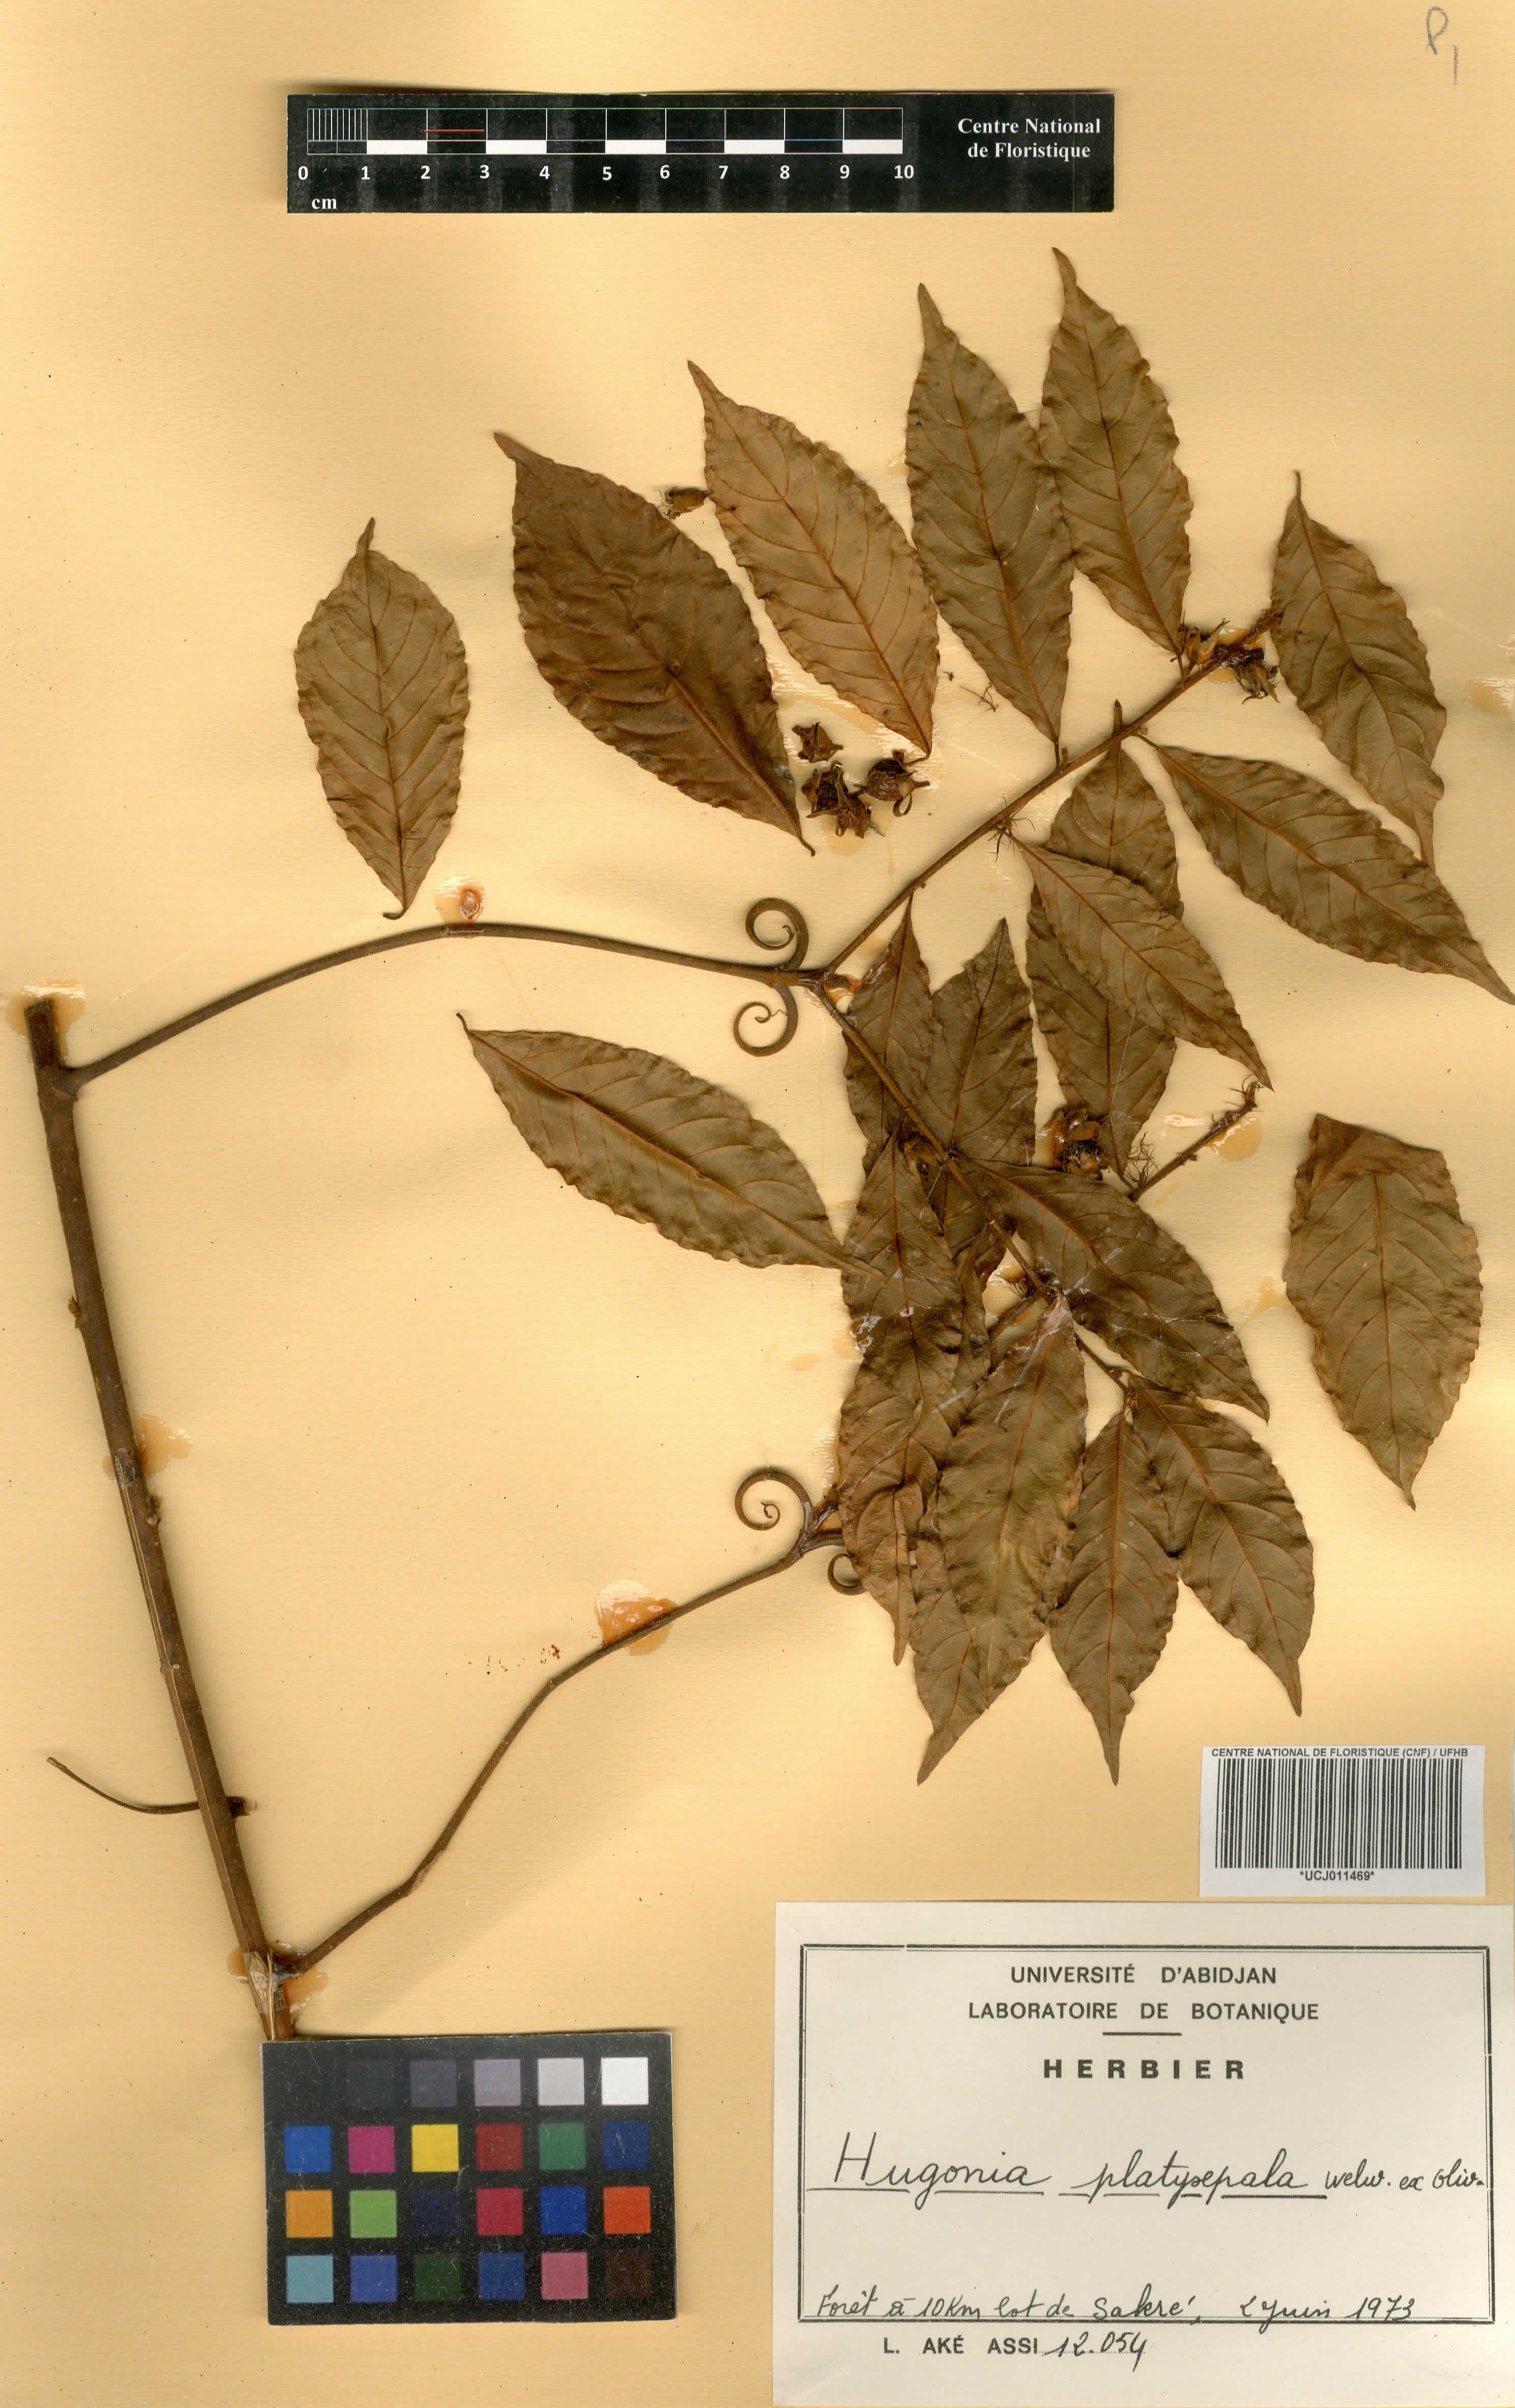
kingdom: Plantae
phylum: Tracheophyta
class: Magnoliopsida
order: Malpighiales
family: Linaceae
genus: Hugonia
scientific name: Hugonia platysepala
